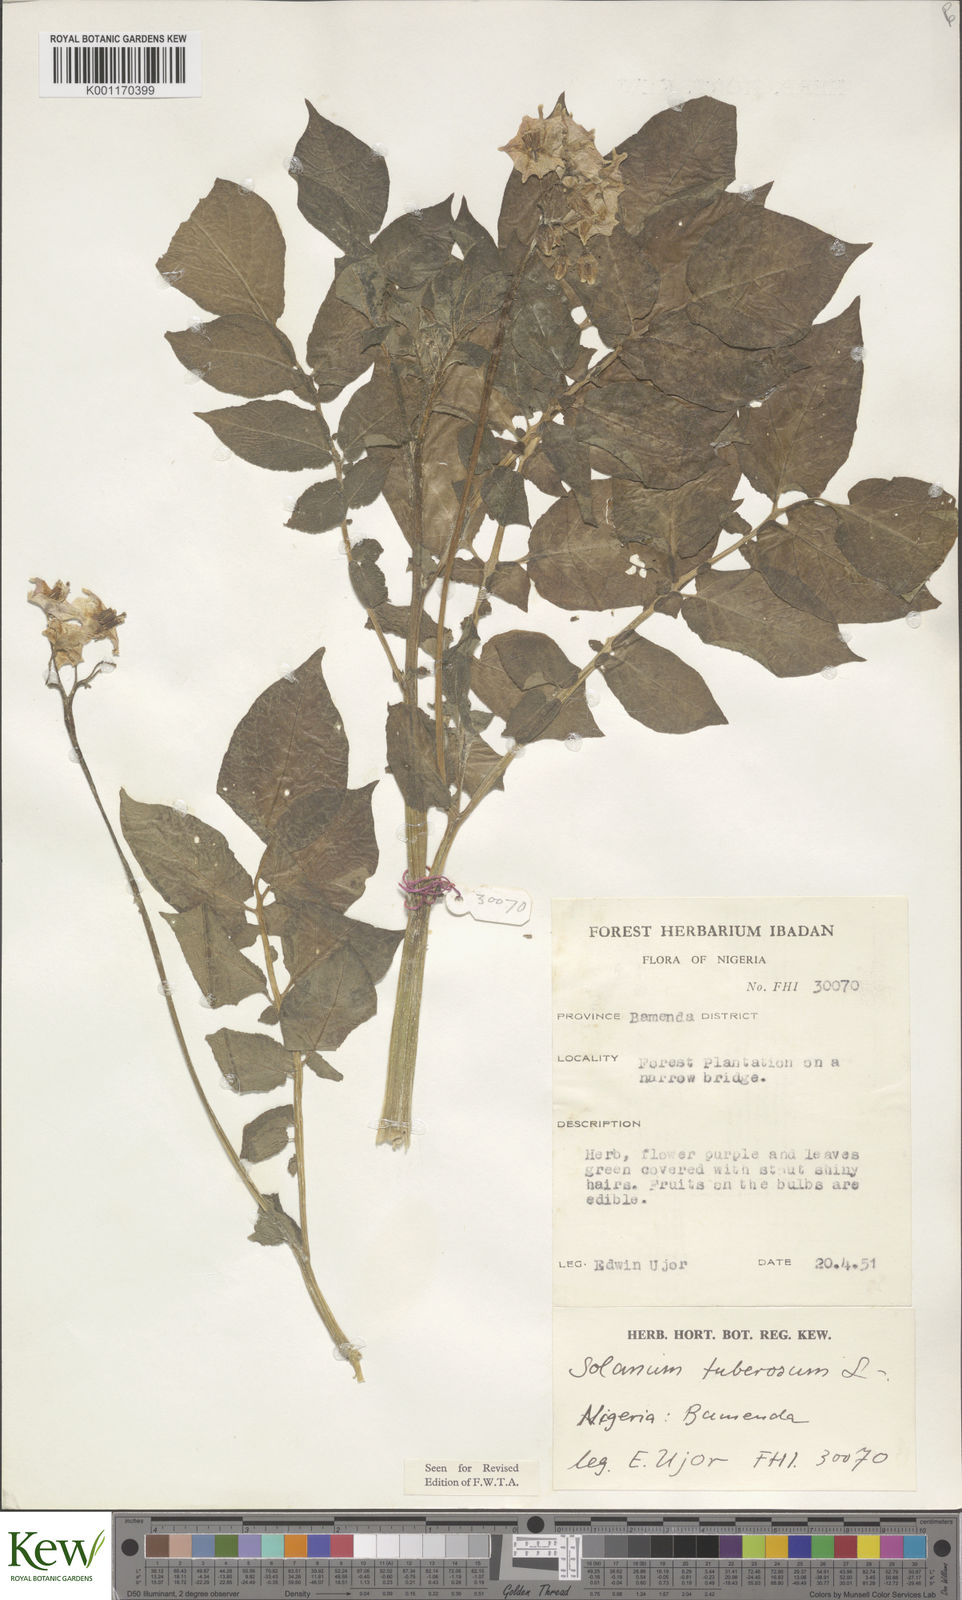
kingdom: Plantae
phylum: Tracheophyta
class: Magnoliopsida
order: Solanales
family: Solanaceae
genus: Solanum
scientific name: Solanum tuberosum
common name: Potato
